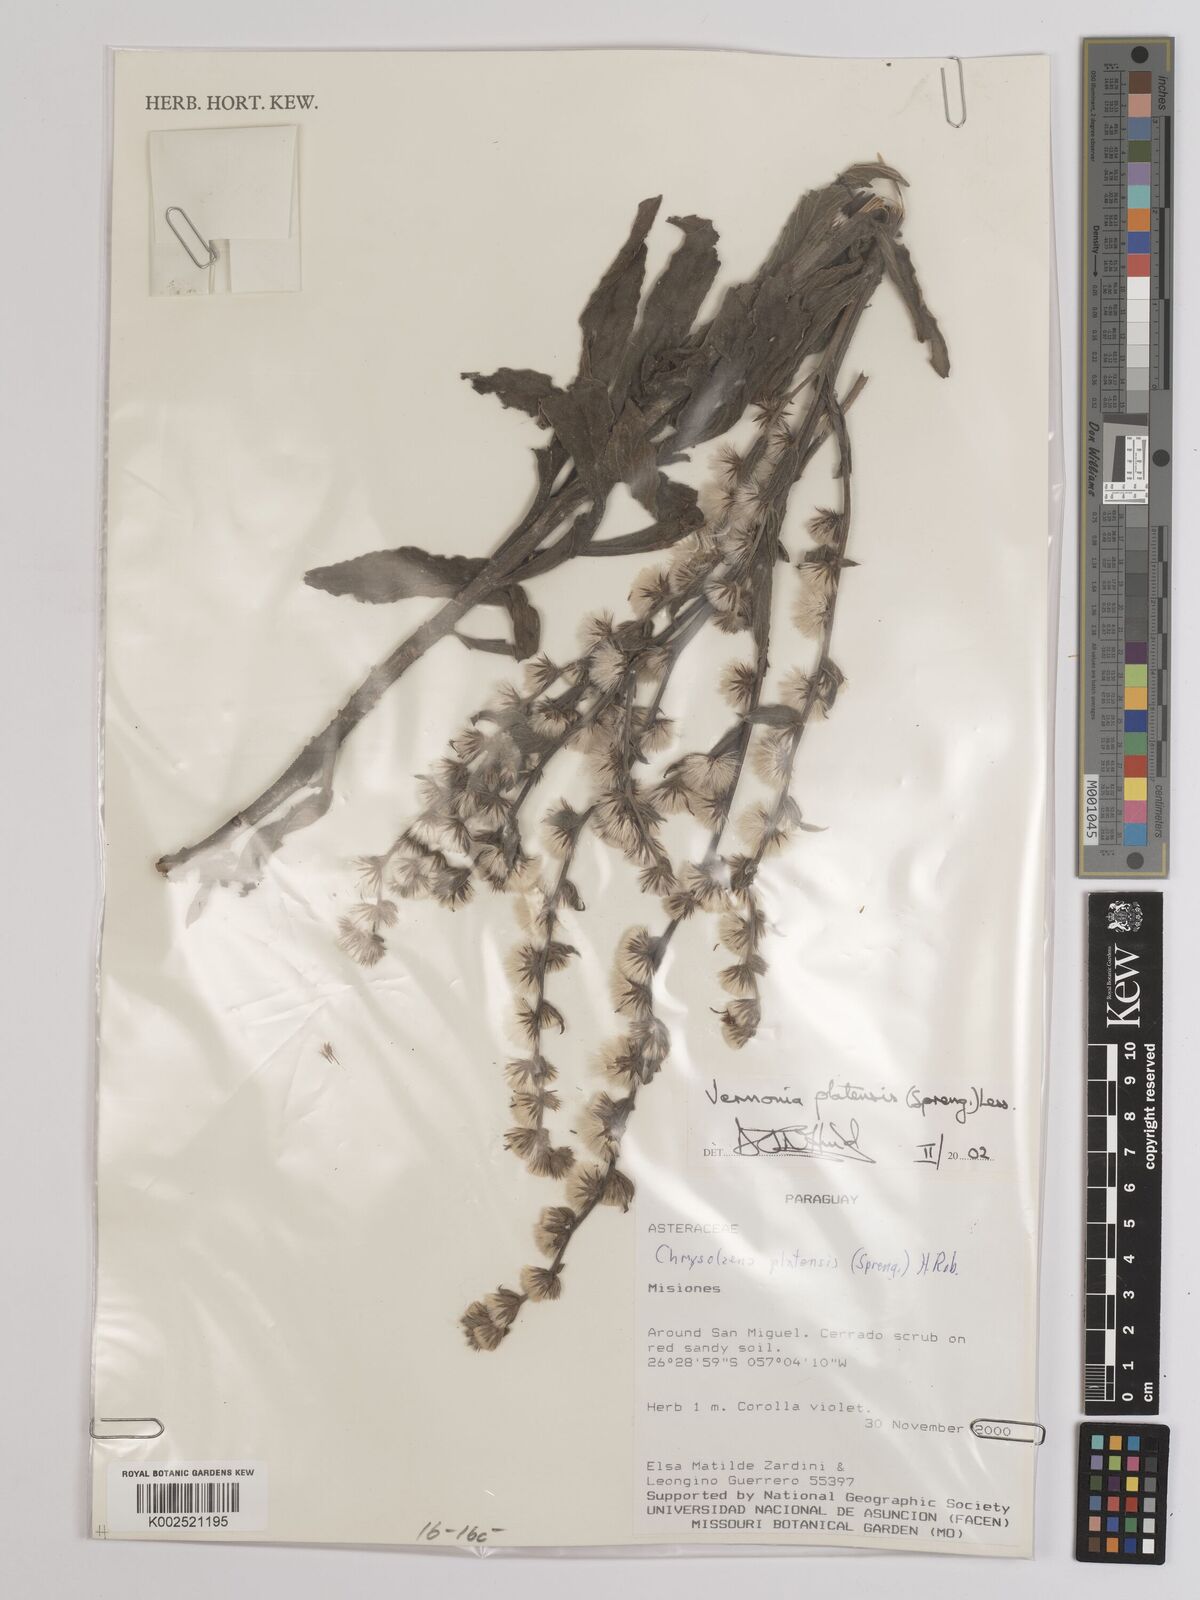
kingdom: Plantae
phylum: Tracheophyta
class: Magnoliopsida
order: Asterales
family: Asteraceae
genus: Chrysolaena
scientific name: Chrysolaena platensis
